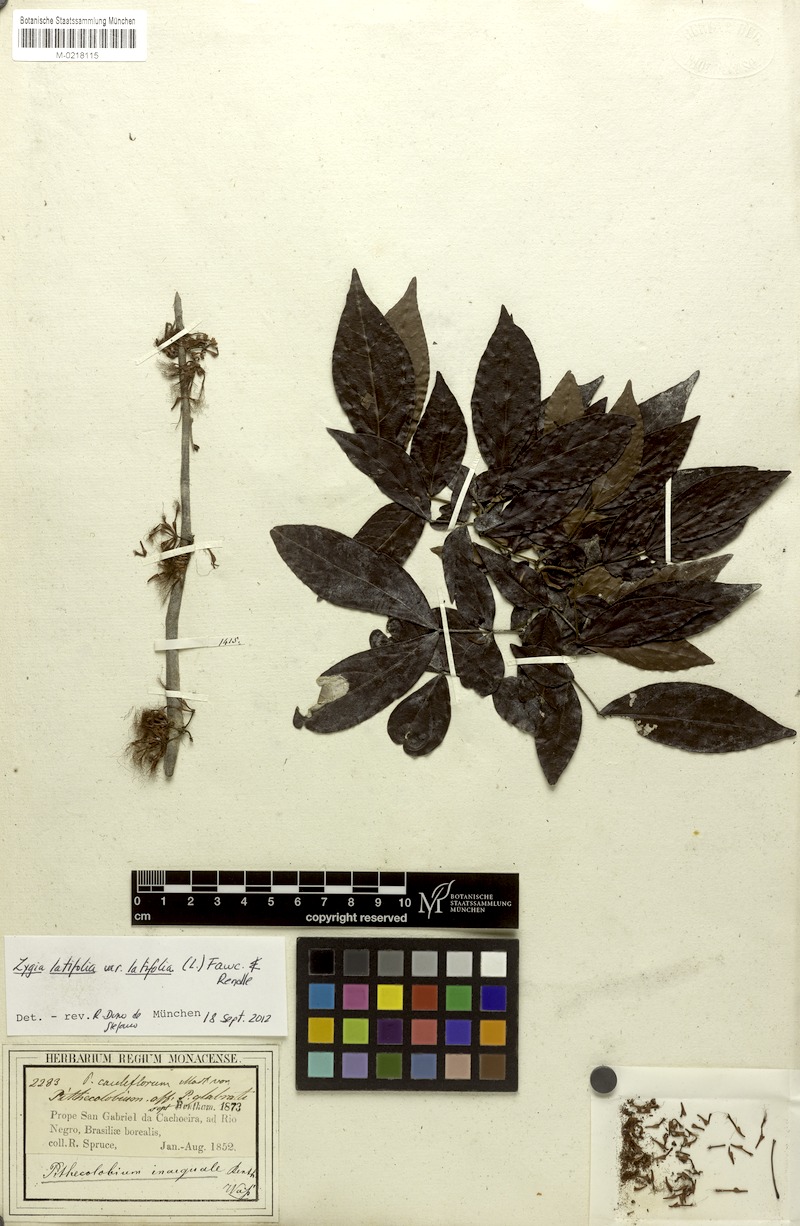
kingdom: Plantae
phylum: Tracheophyta
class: Magnoliopsida
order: Fabales
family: Fabaceae
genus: Zygia
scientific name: Zygia latifolia
